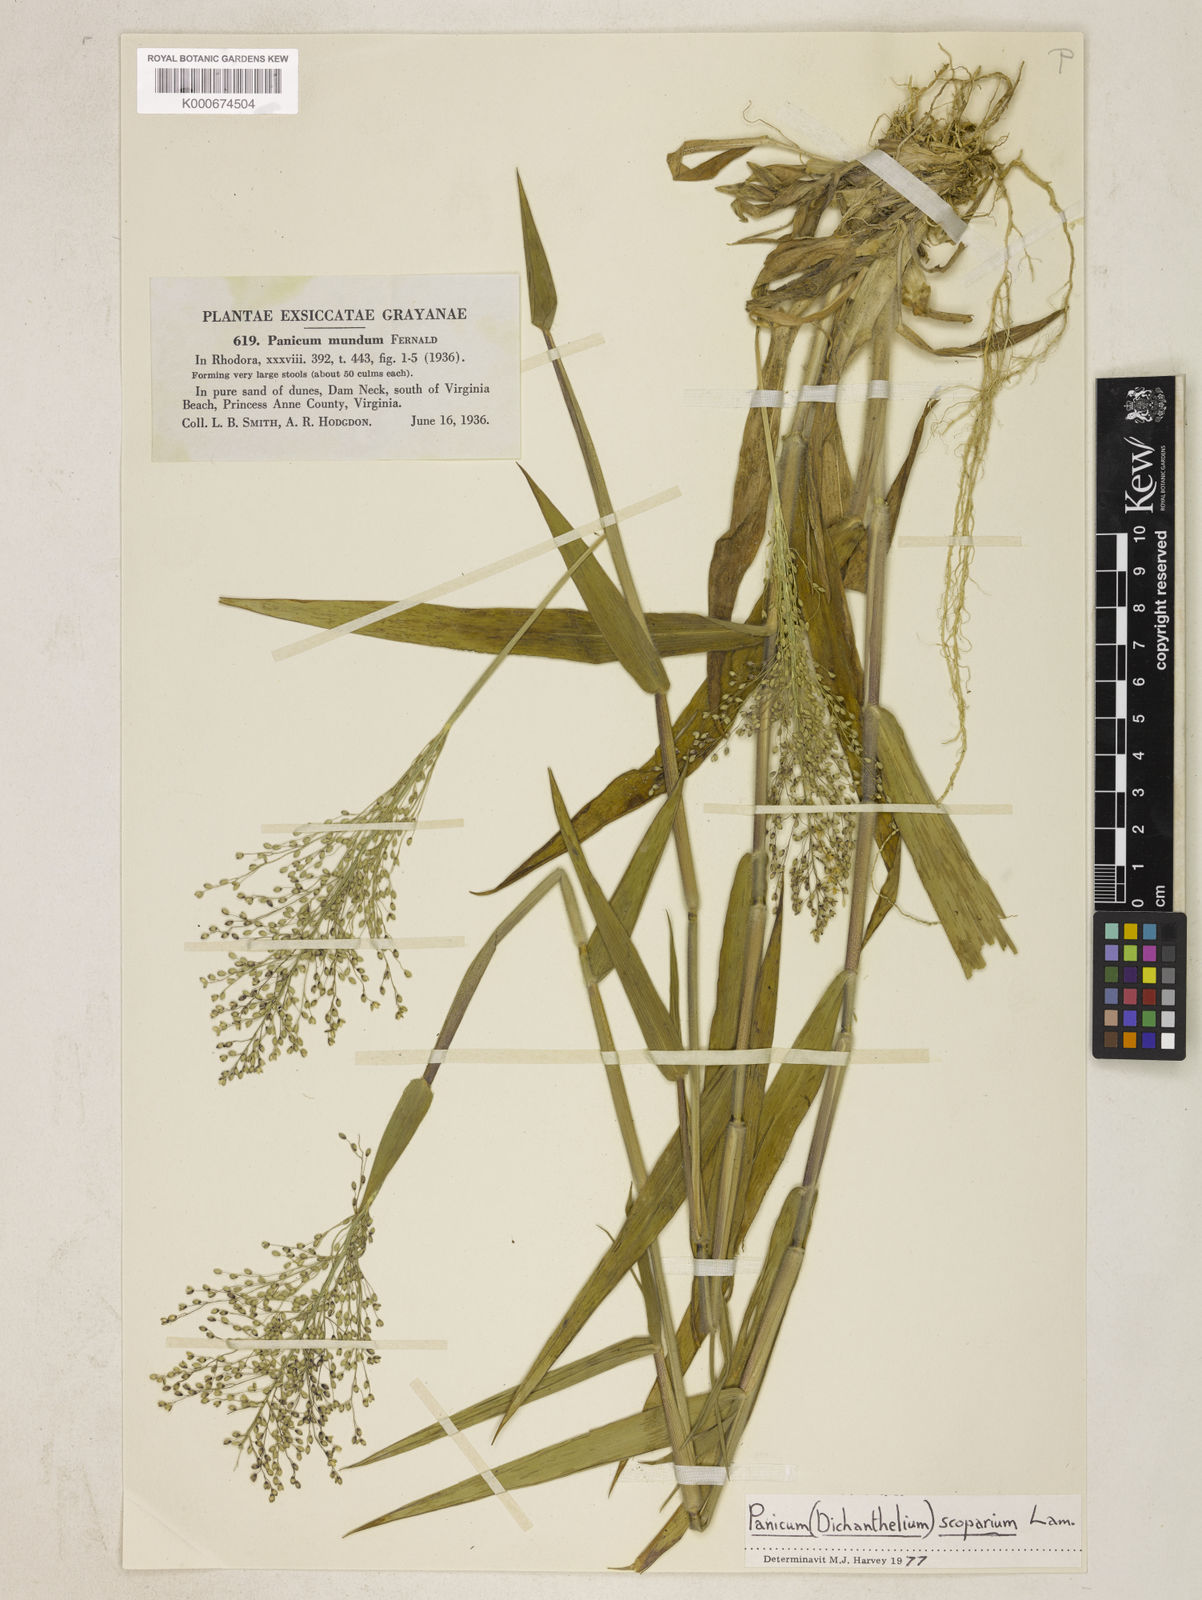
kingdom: Plantae
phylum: Tracheophyta
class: Liliopsida
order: Poales
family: Poaceae
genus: Dichanthelium
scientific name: Dichanthelium mundum
